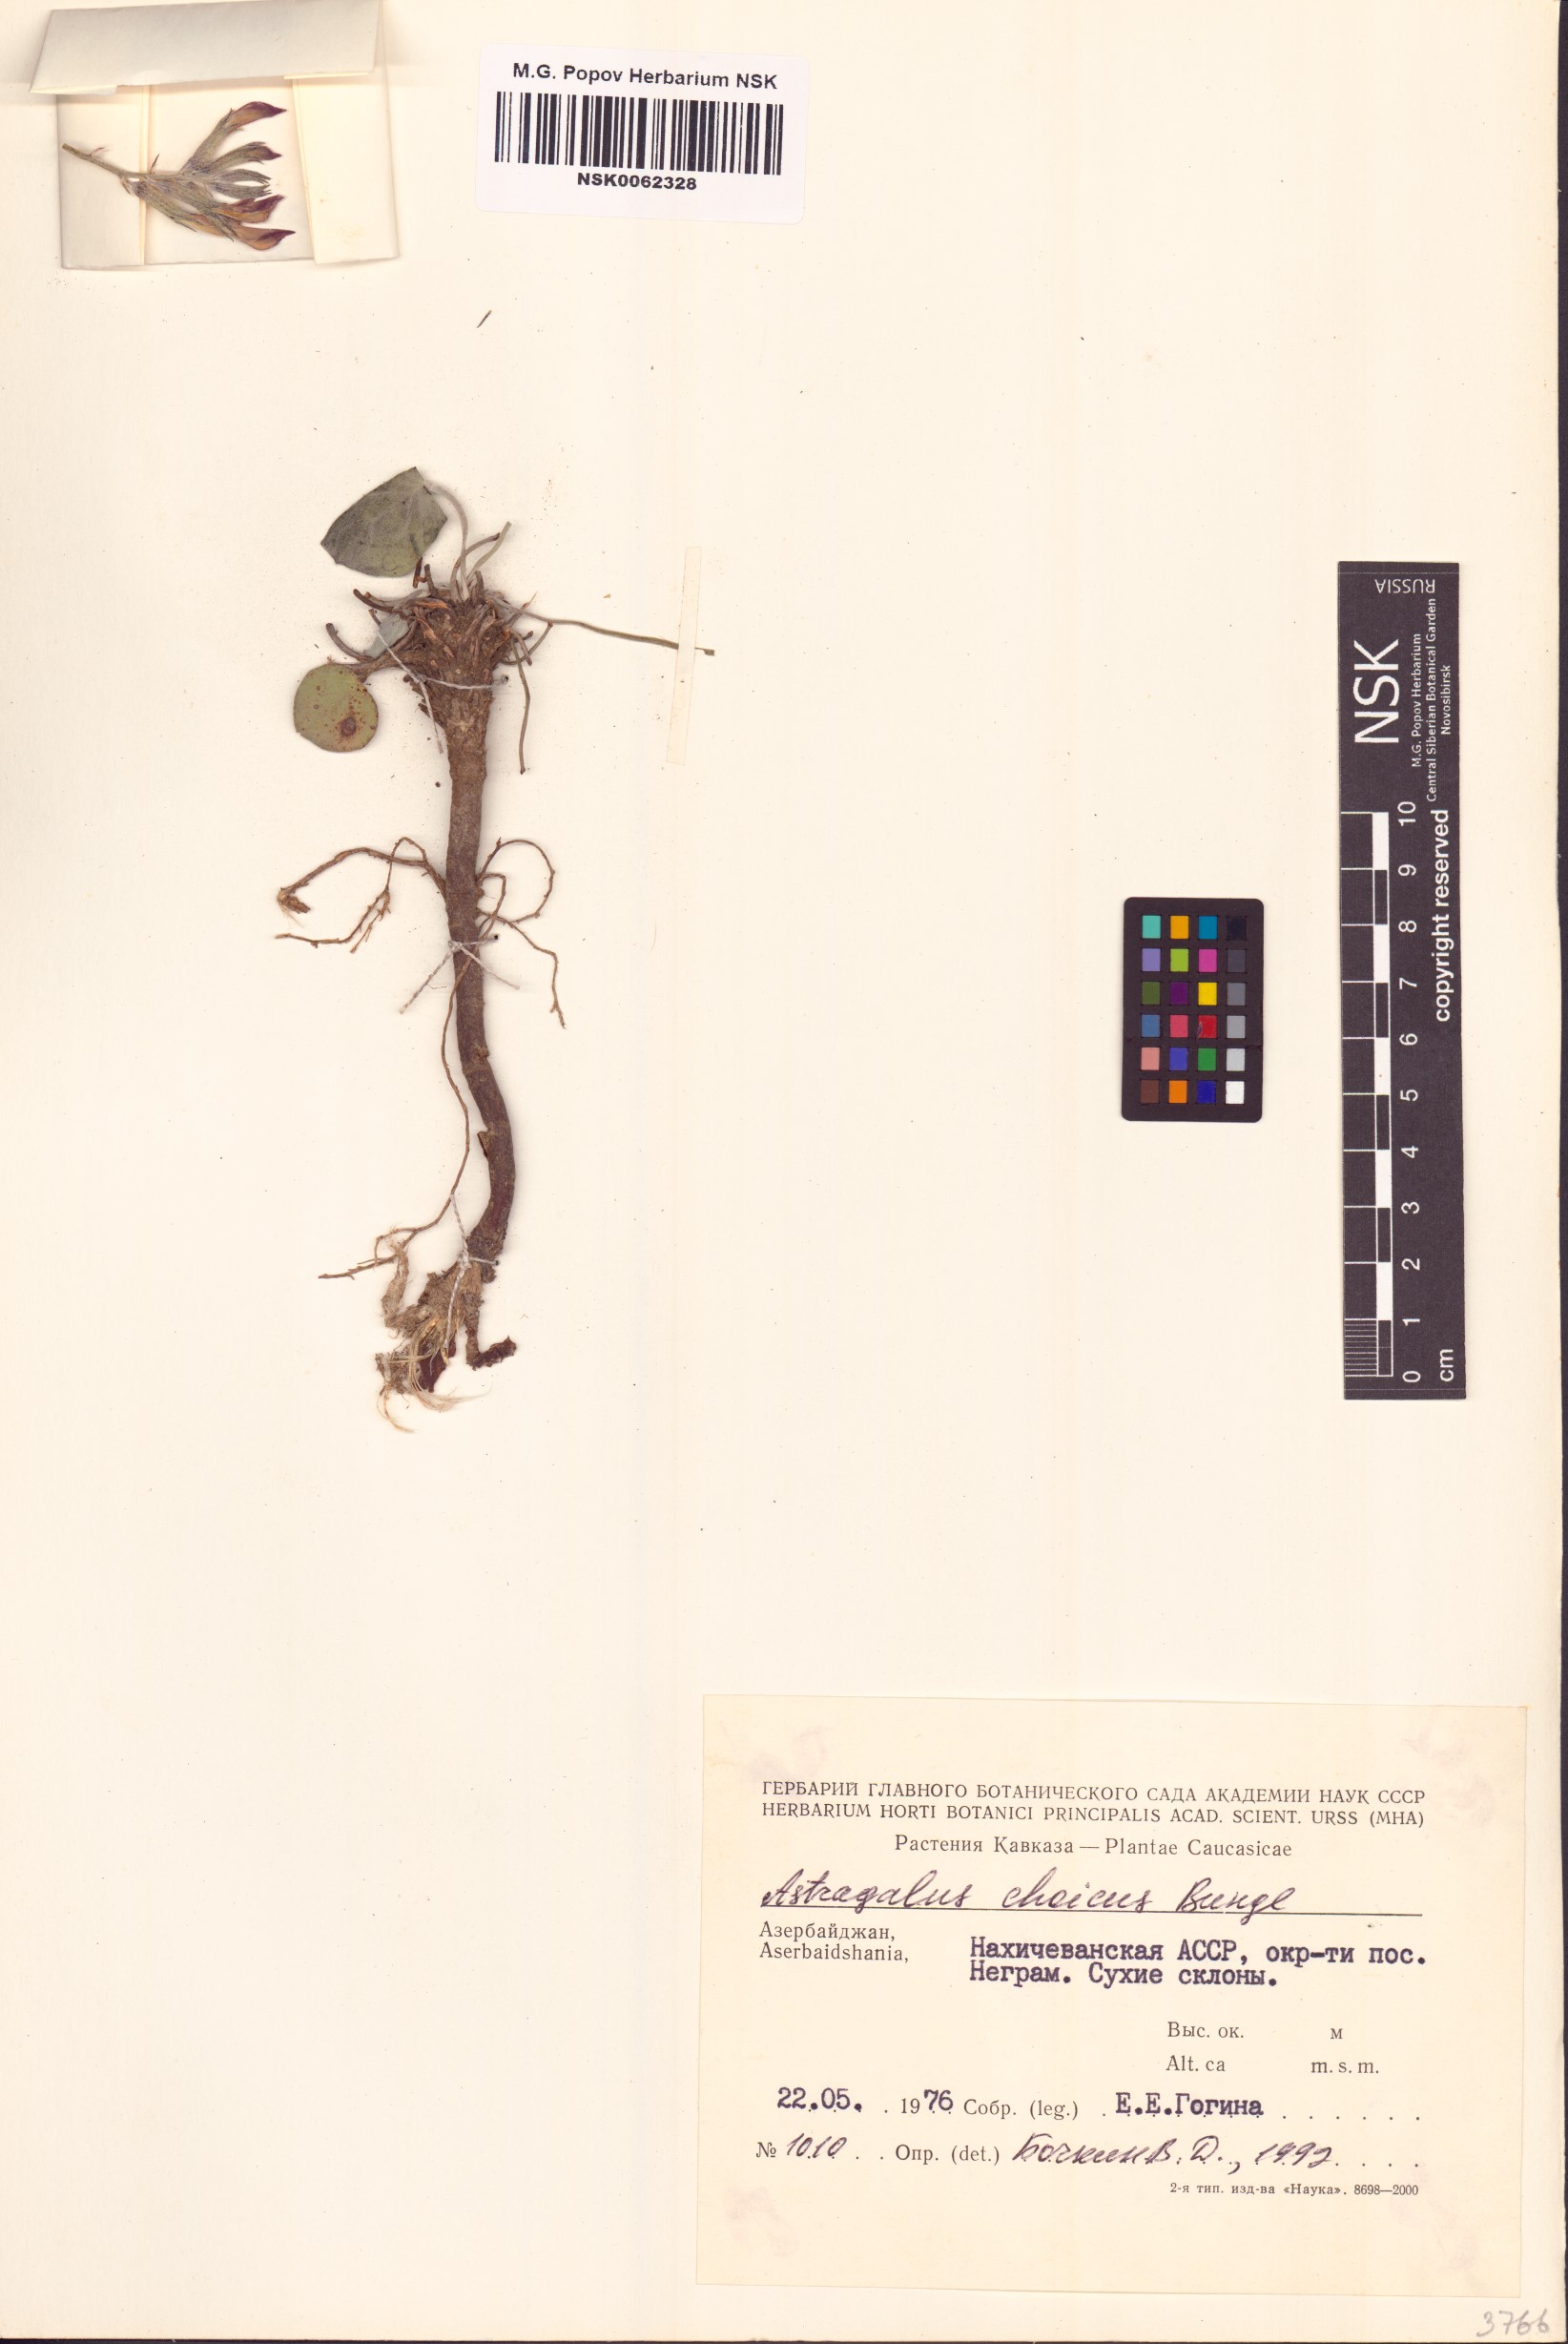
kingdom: Plantae
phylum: Tracheophyta
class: Magnoliopsida
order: Fabales
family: Fabaceae
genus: Astragalus
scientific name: Astragalus latifolius
